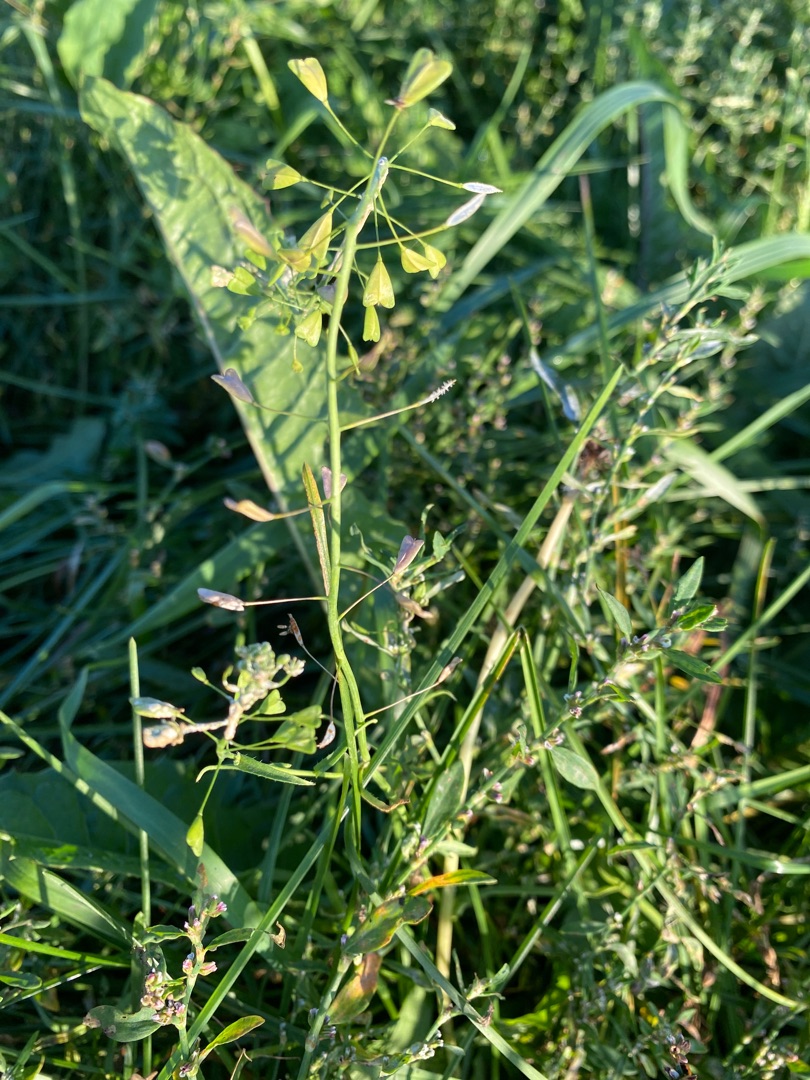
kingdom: Plantae
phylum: Tracheophyta
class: Magnoliopsida
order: Brassicales
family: Brassicaceae
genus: Capsella
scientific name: Capsella bursa-pastoris
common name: Hyrdetaske
